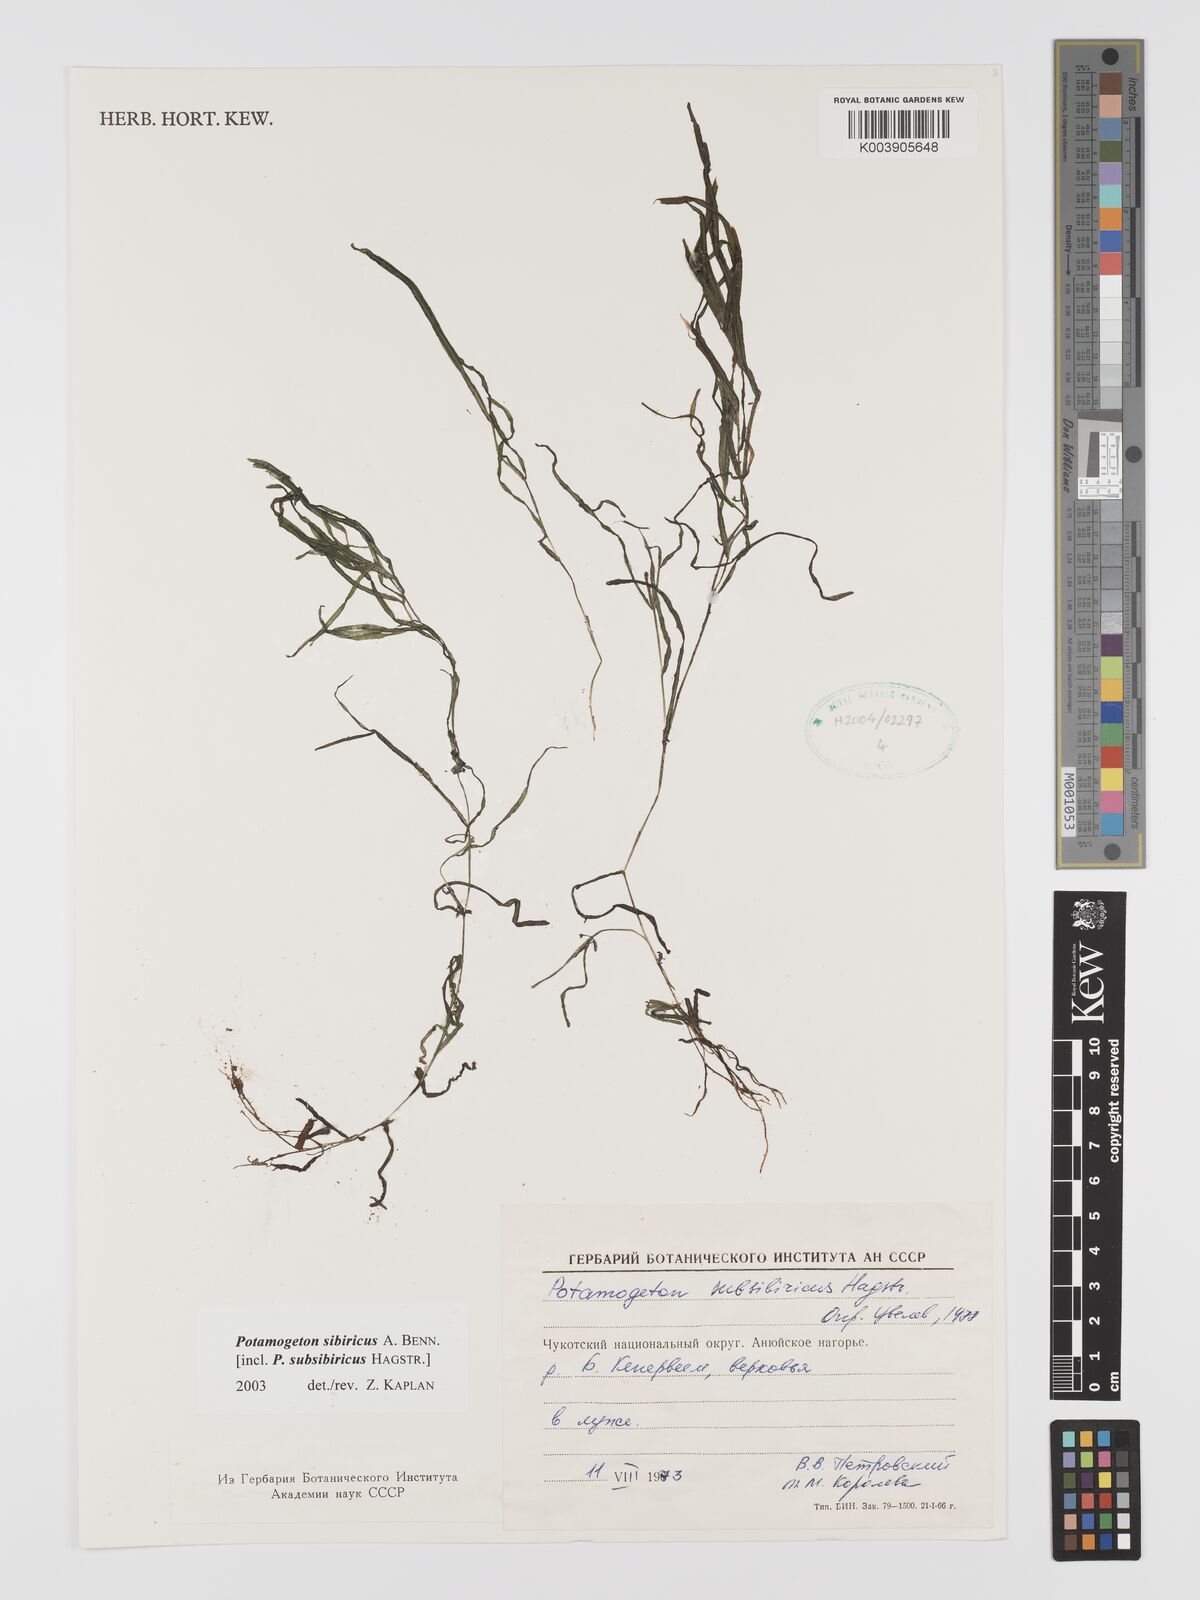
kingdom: Plantae
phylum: Tracheophyta
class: Liliopsida
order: Alismatales
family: Potamogetonaceae
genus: Potamogeton
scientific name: Potamogeton sibiricus
